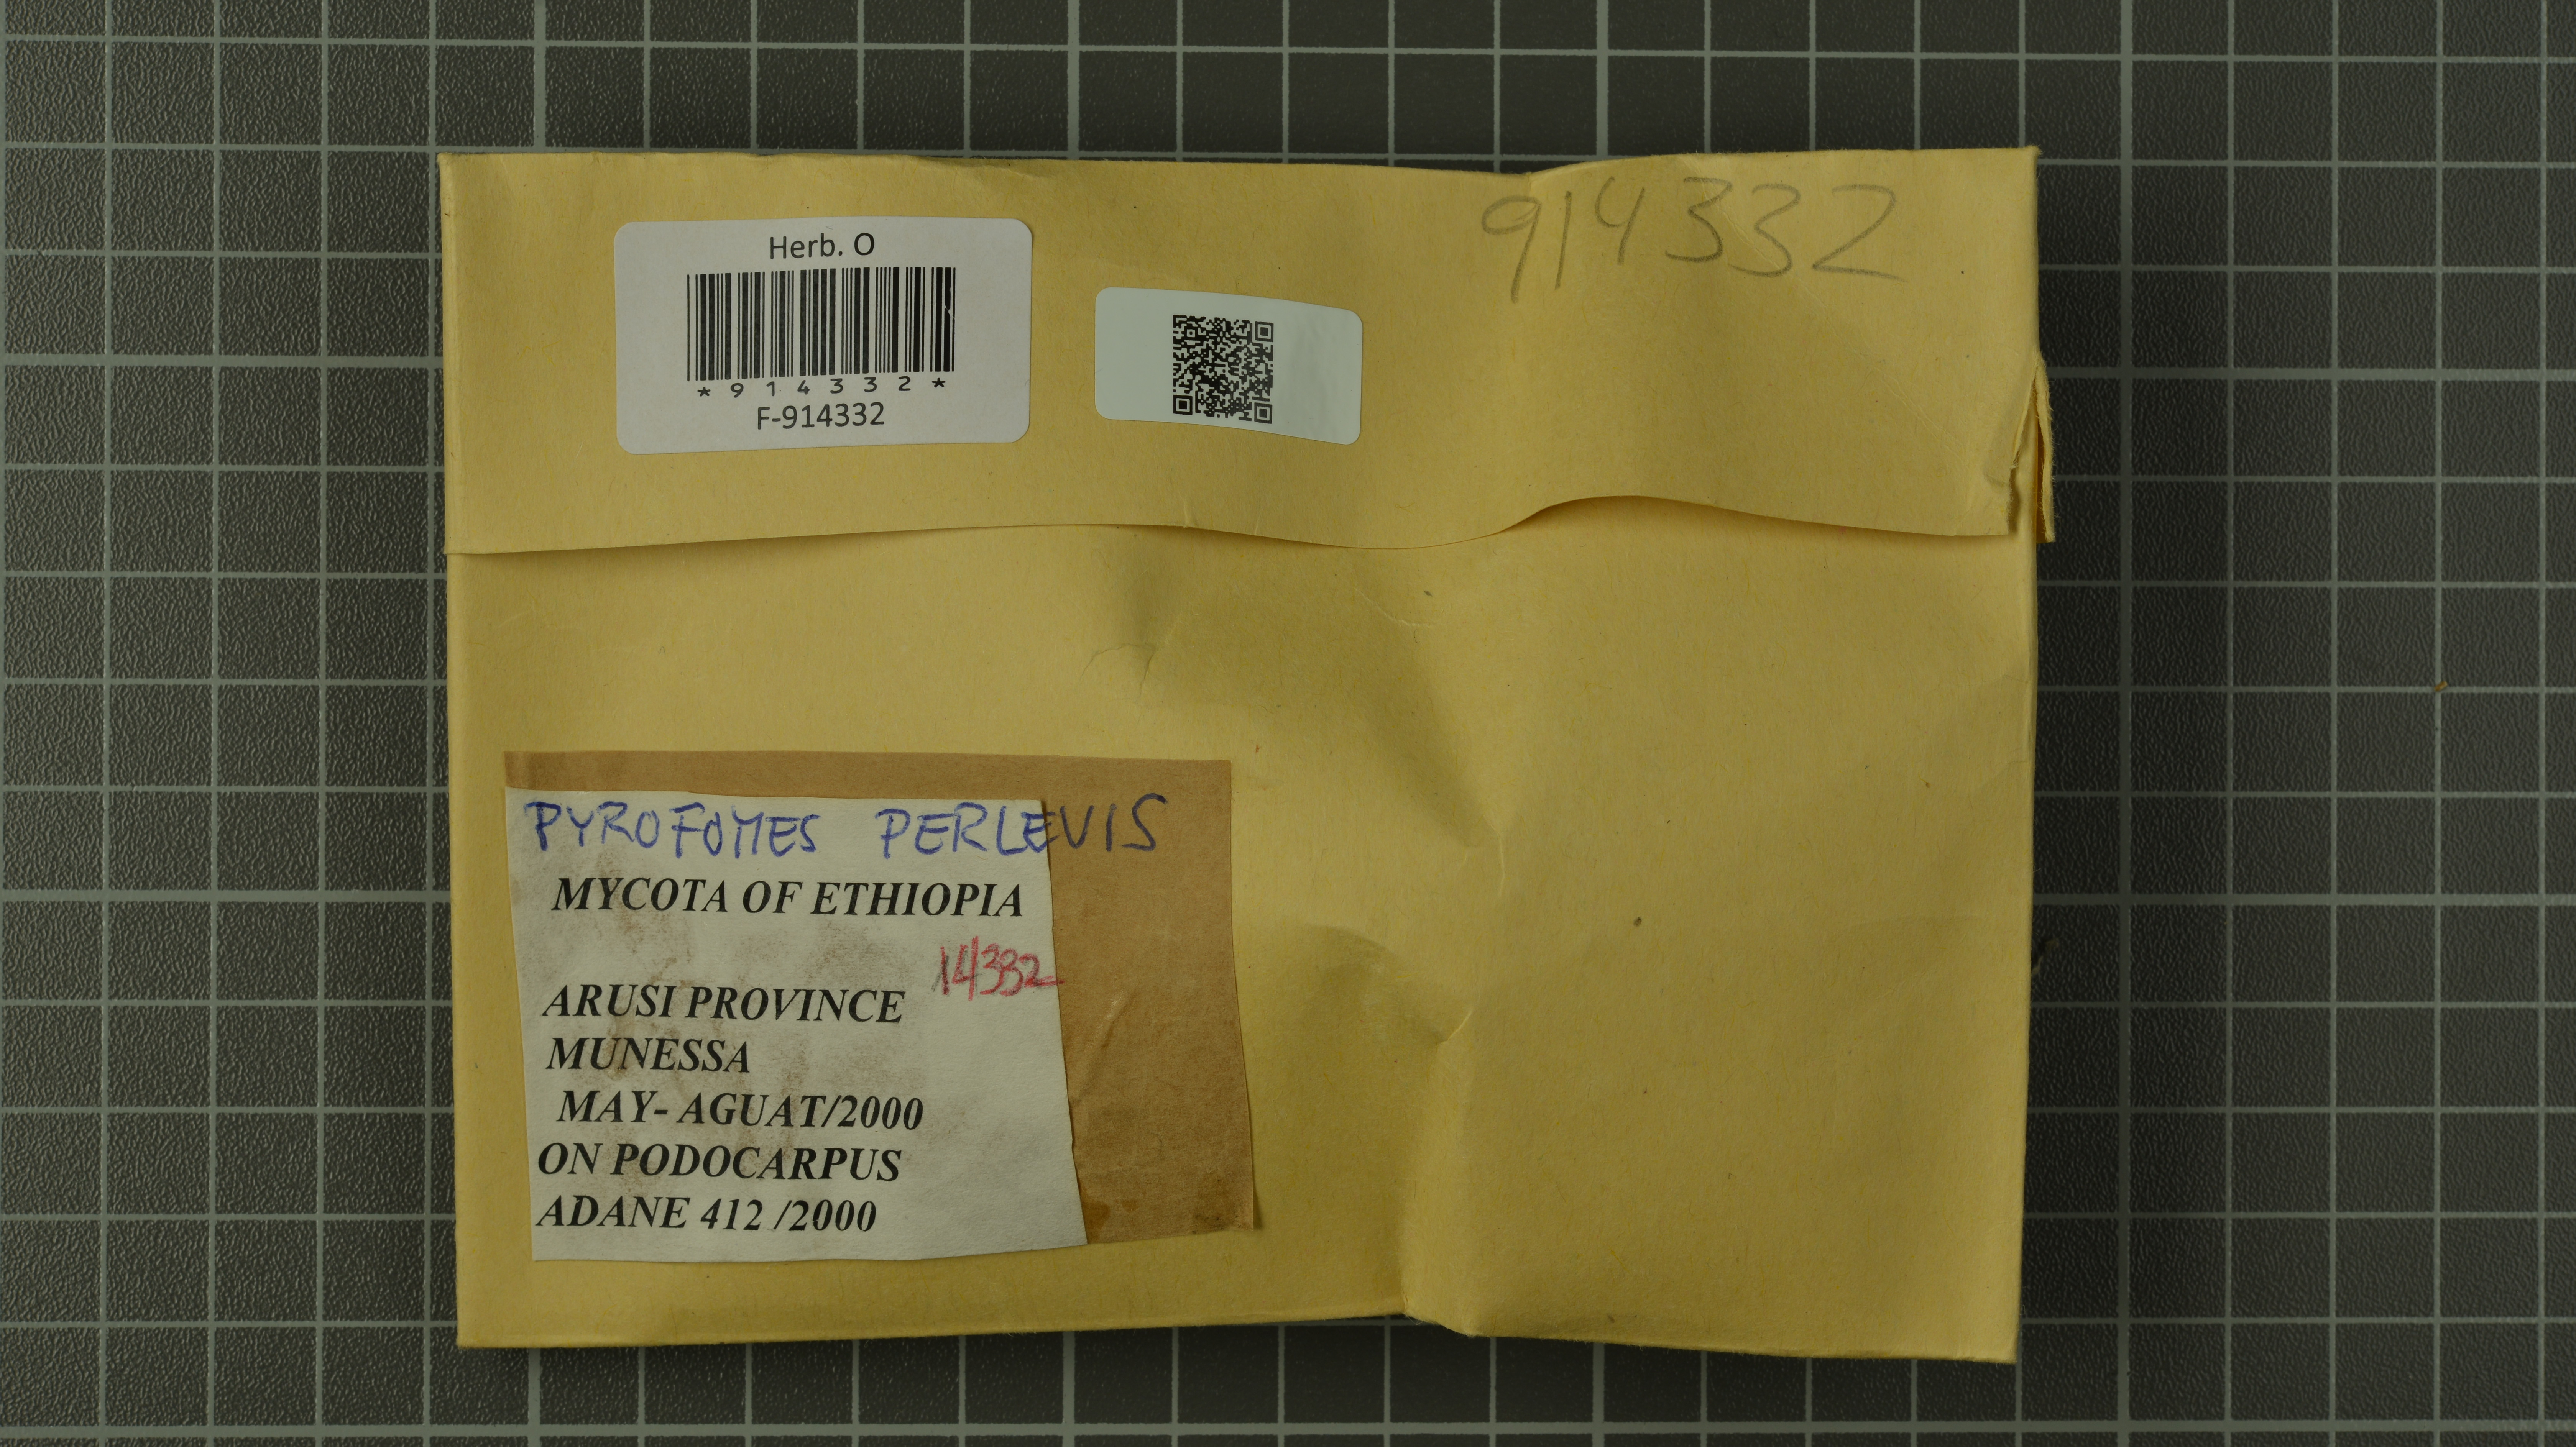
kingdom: Fungi
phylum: Basidiomycota
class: Agaricomycetes
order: Polyporales
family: Polyporaceae
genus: Pyrofomes
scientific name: Pyrofomes perlevis
